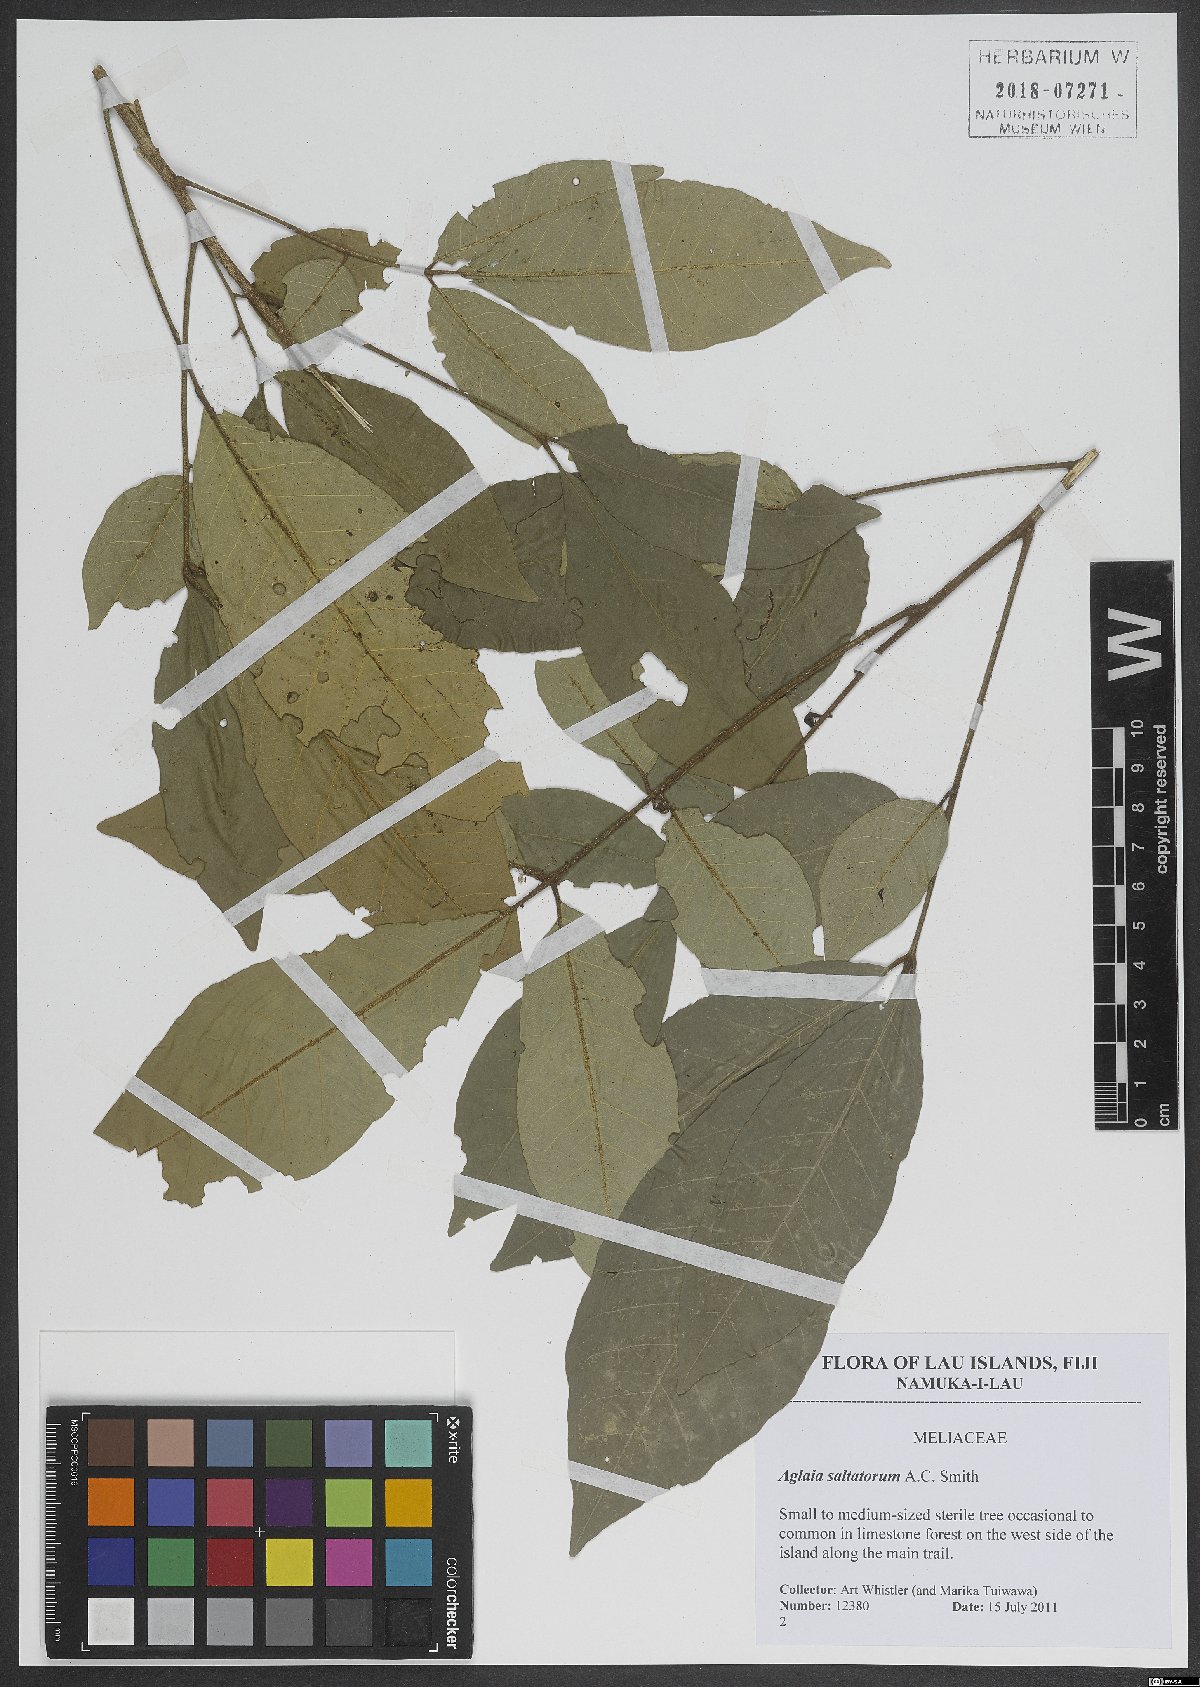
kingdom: Plantae
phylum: Tracheophyta
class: Magnoliopsida
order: Sapindales
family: Meliaceae
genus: Aglaia
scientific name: Aglaia saltatorum
